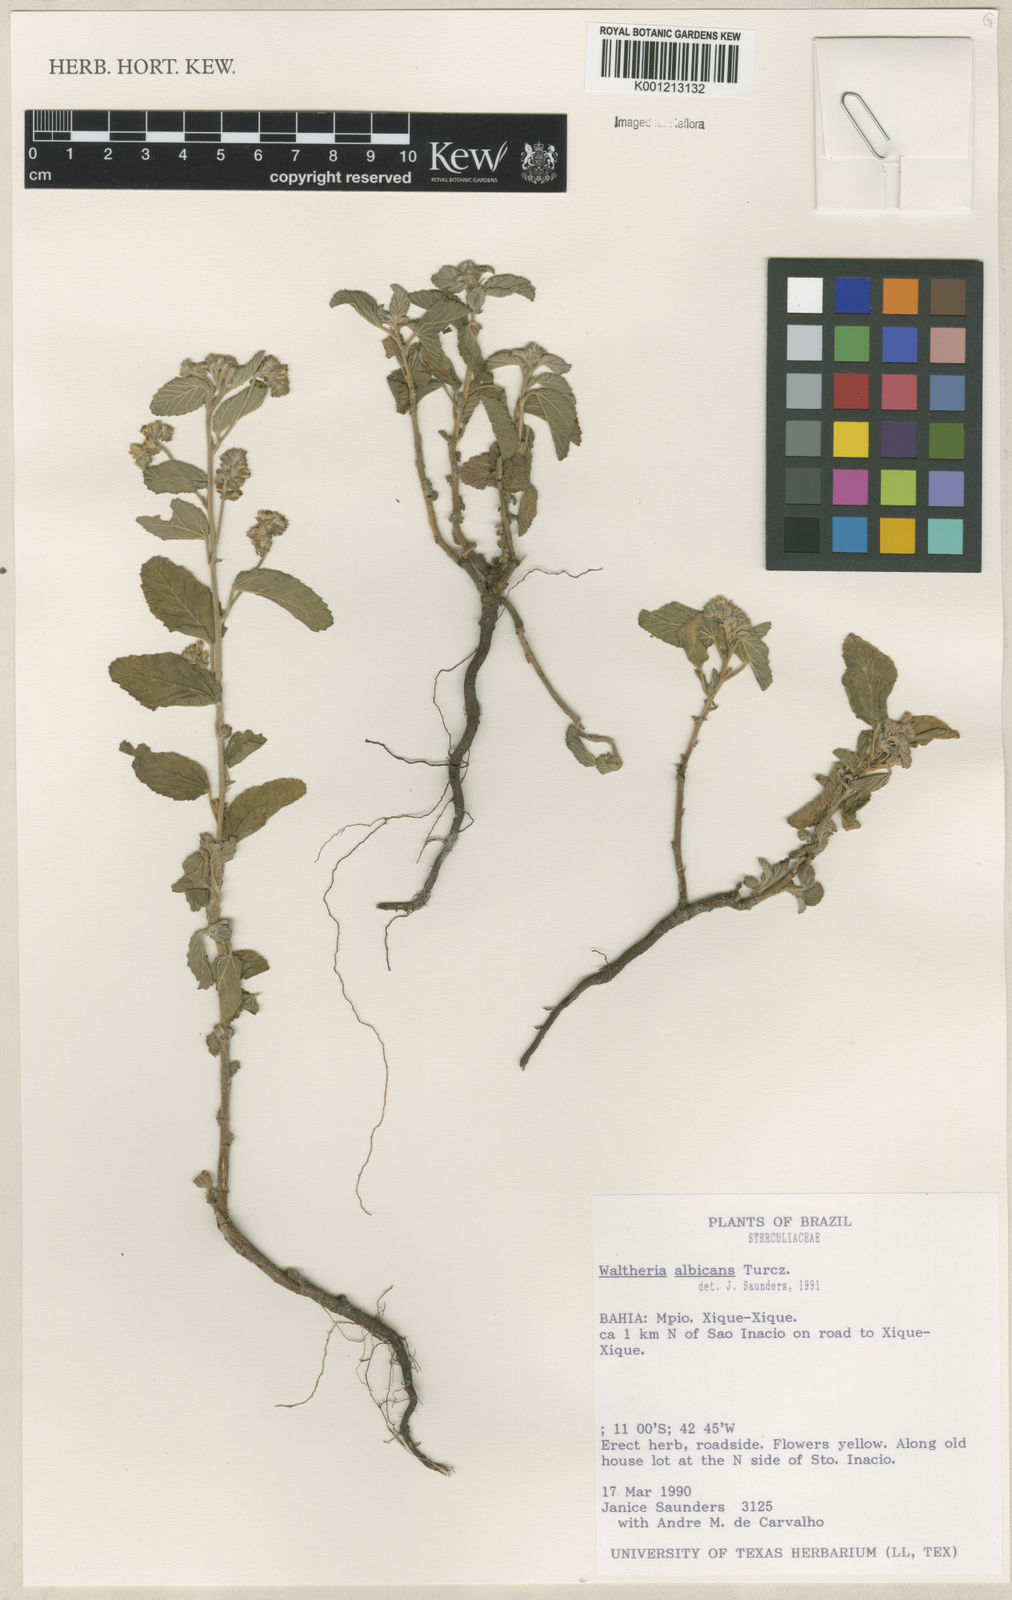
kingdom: Plantae
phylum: Tracheophyta
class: Magnoliopsida
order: Malvales
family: Malvaceae
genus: Waltheria
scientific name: Waltheria albicans
